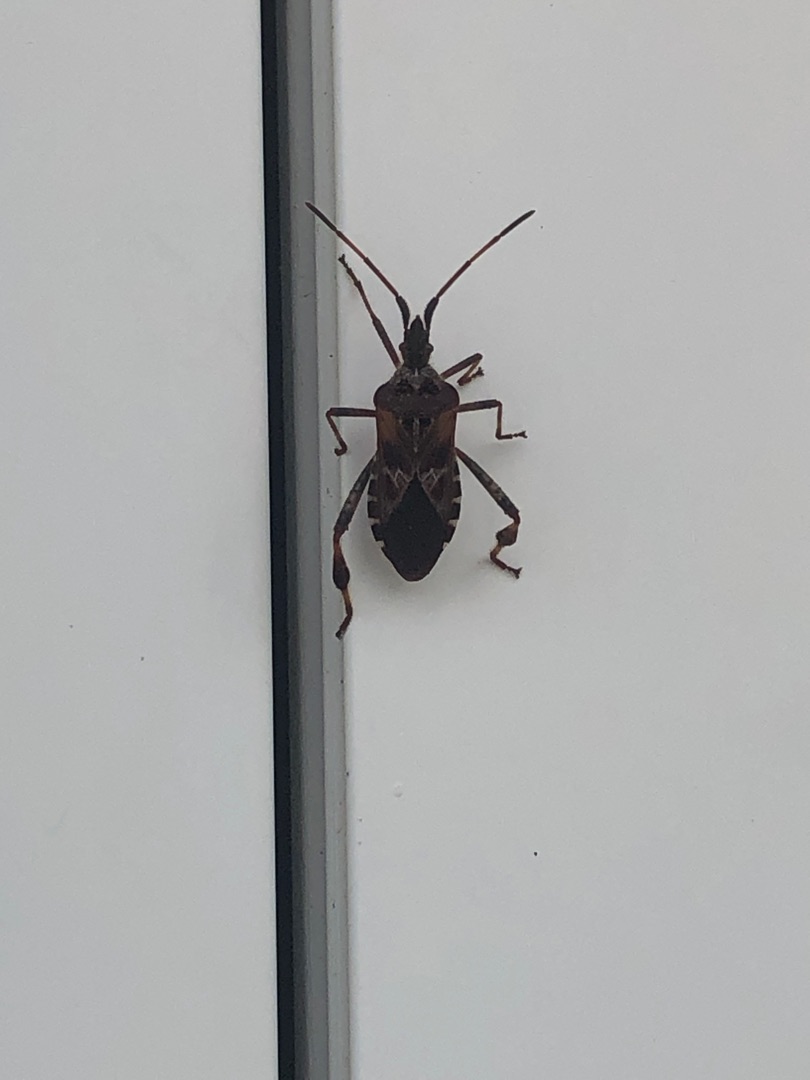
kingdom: Animalia
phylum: Arthropoda
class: Insecta
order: Hemiptera
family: Coreidae
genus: Leptoglossus
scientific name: Leptoglossus occidentalis
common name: Amerikansk fyrretæge
